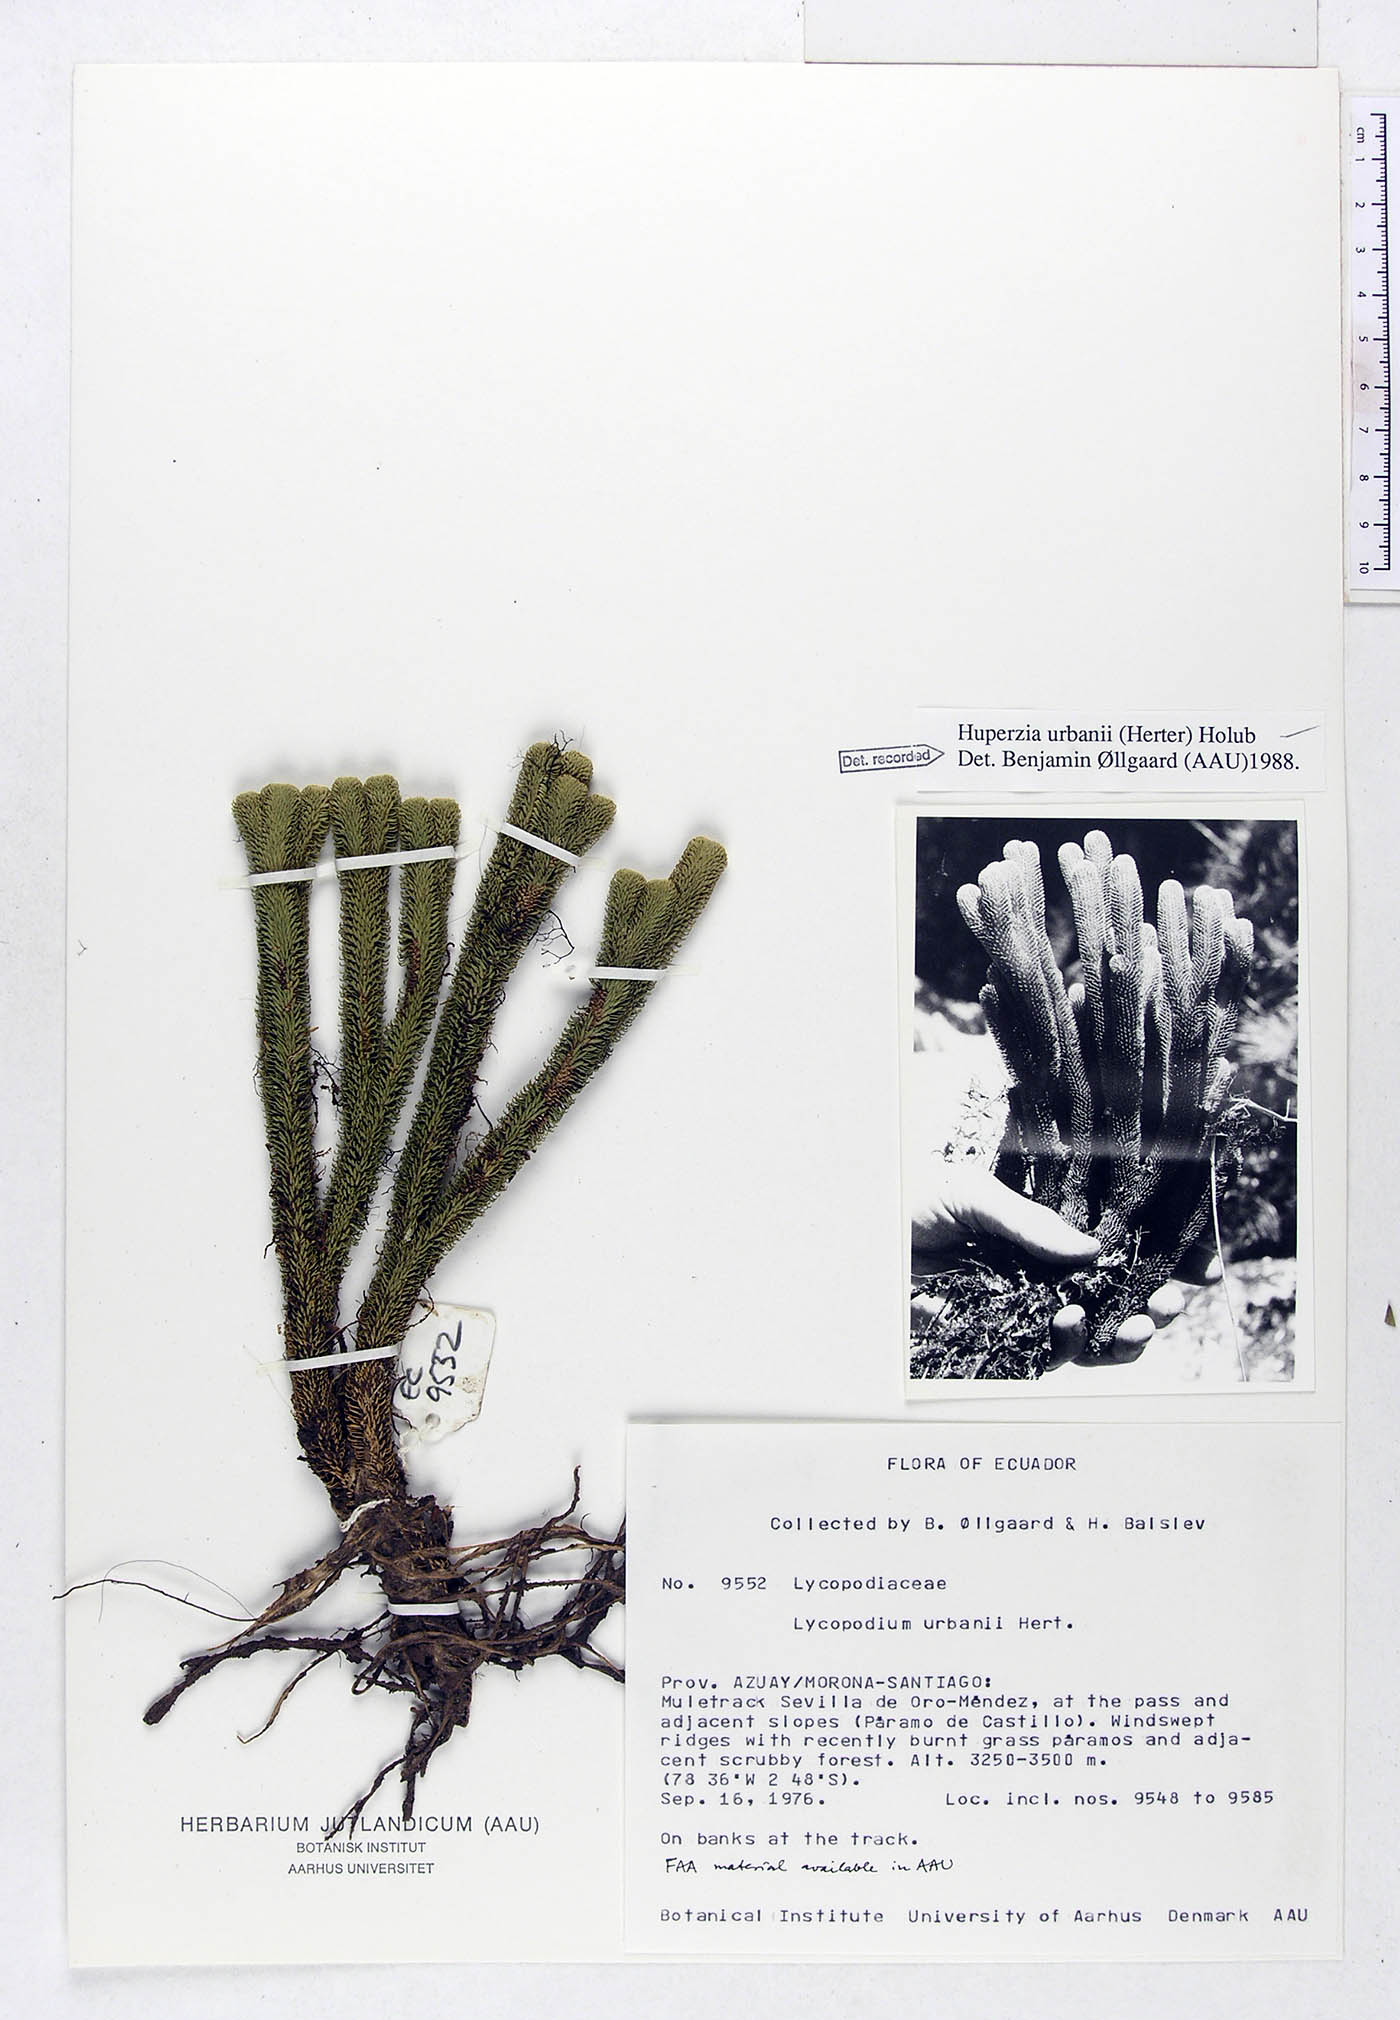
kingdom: Plantae
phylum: Tracheophyta
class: Lycopodiopsida
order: Lycopodiales
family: Lycopodiaceae
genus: Phlegmariurus
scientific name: Phlegmariurus urbanii
